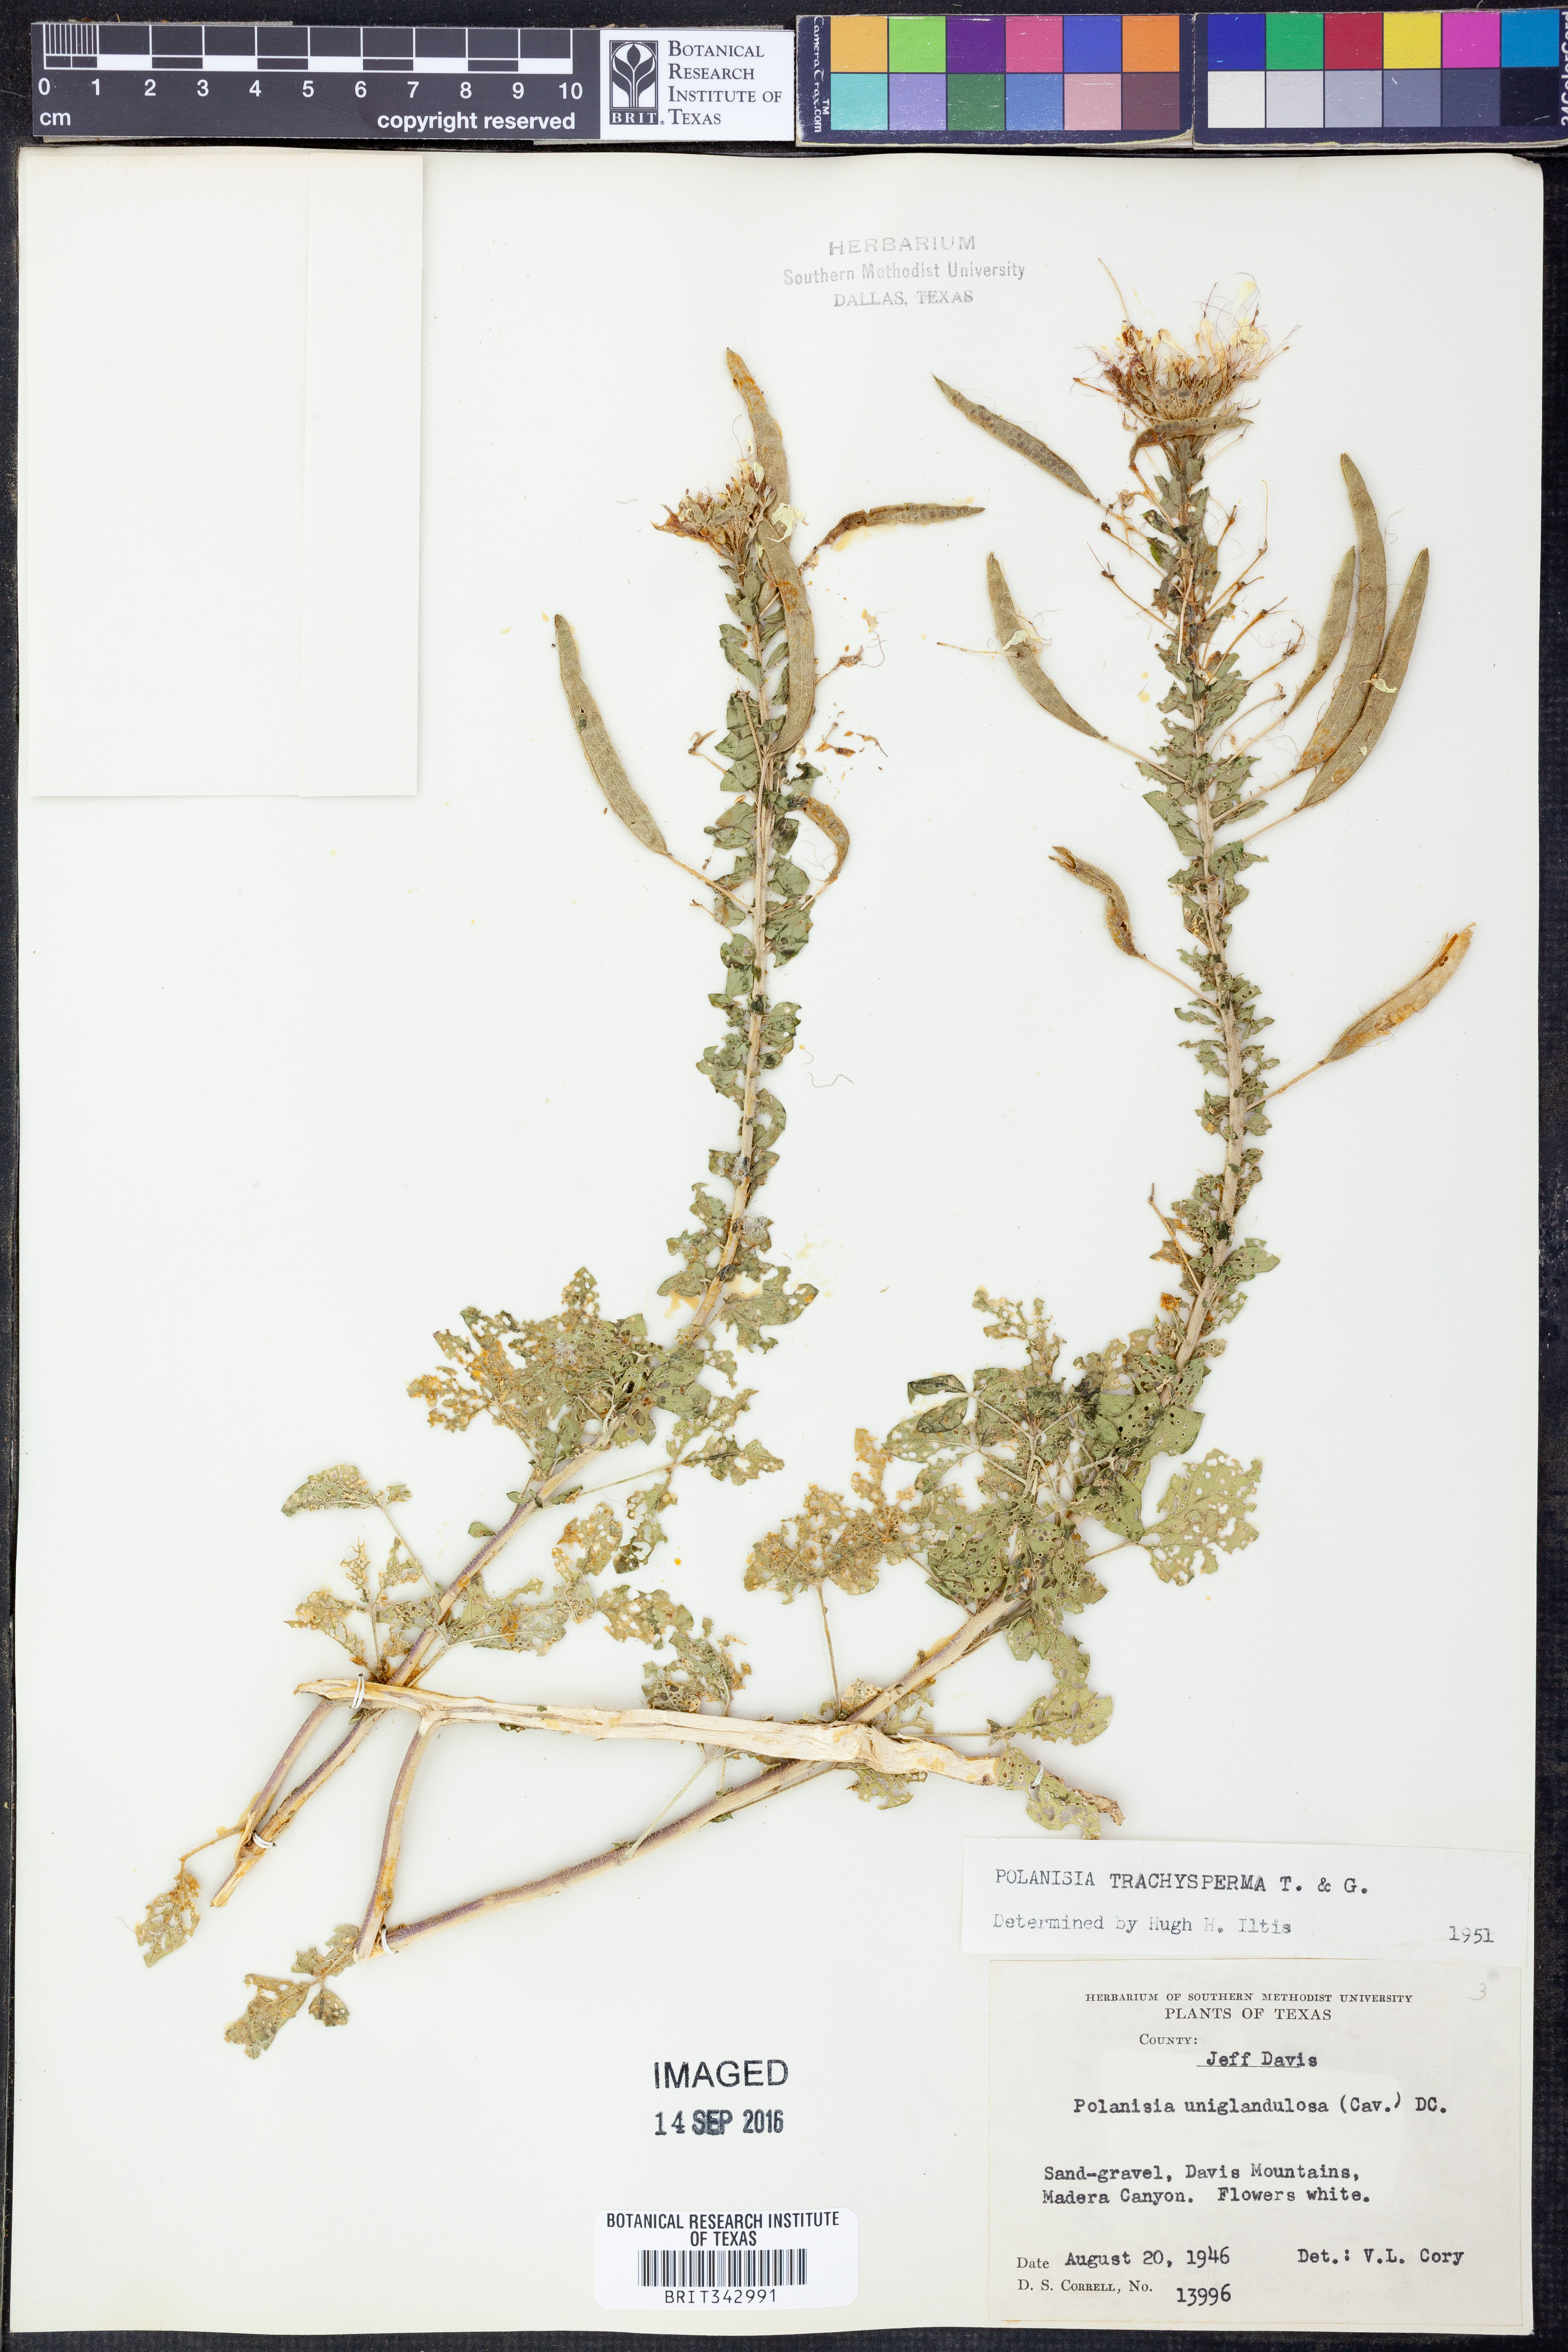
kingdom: Plantae
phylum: Tracheophyta
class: Magnoliopsida
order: Brassicales
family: Cleomaceae
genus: Polanisia
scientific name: Polanisia trachysperma
